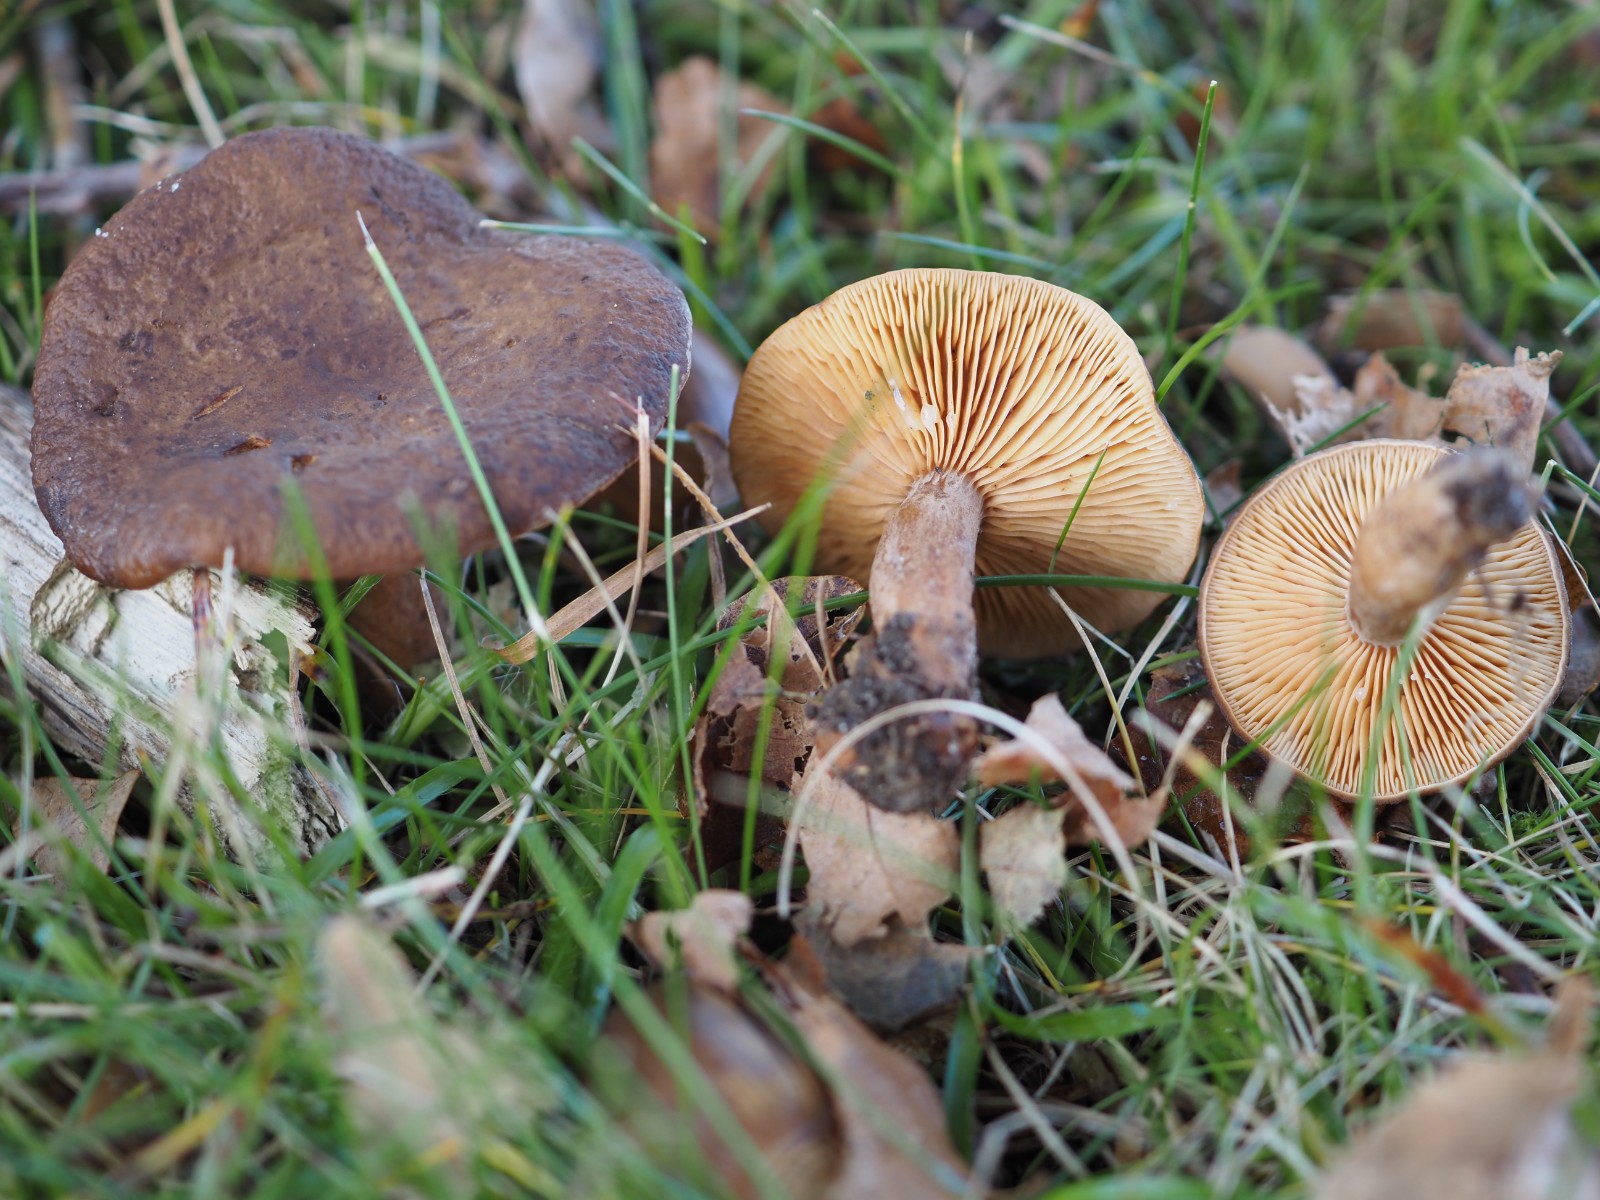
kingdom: Fungi
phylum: Basidiomycota
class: Agaricomycetes
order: Russulales
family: Russulaceae
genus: Lactarius
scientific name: Lactarius serifluus
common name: tæge-mælkehat
